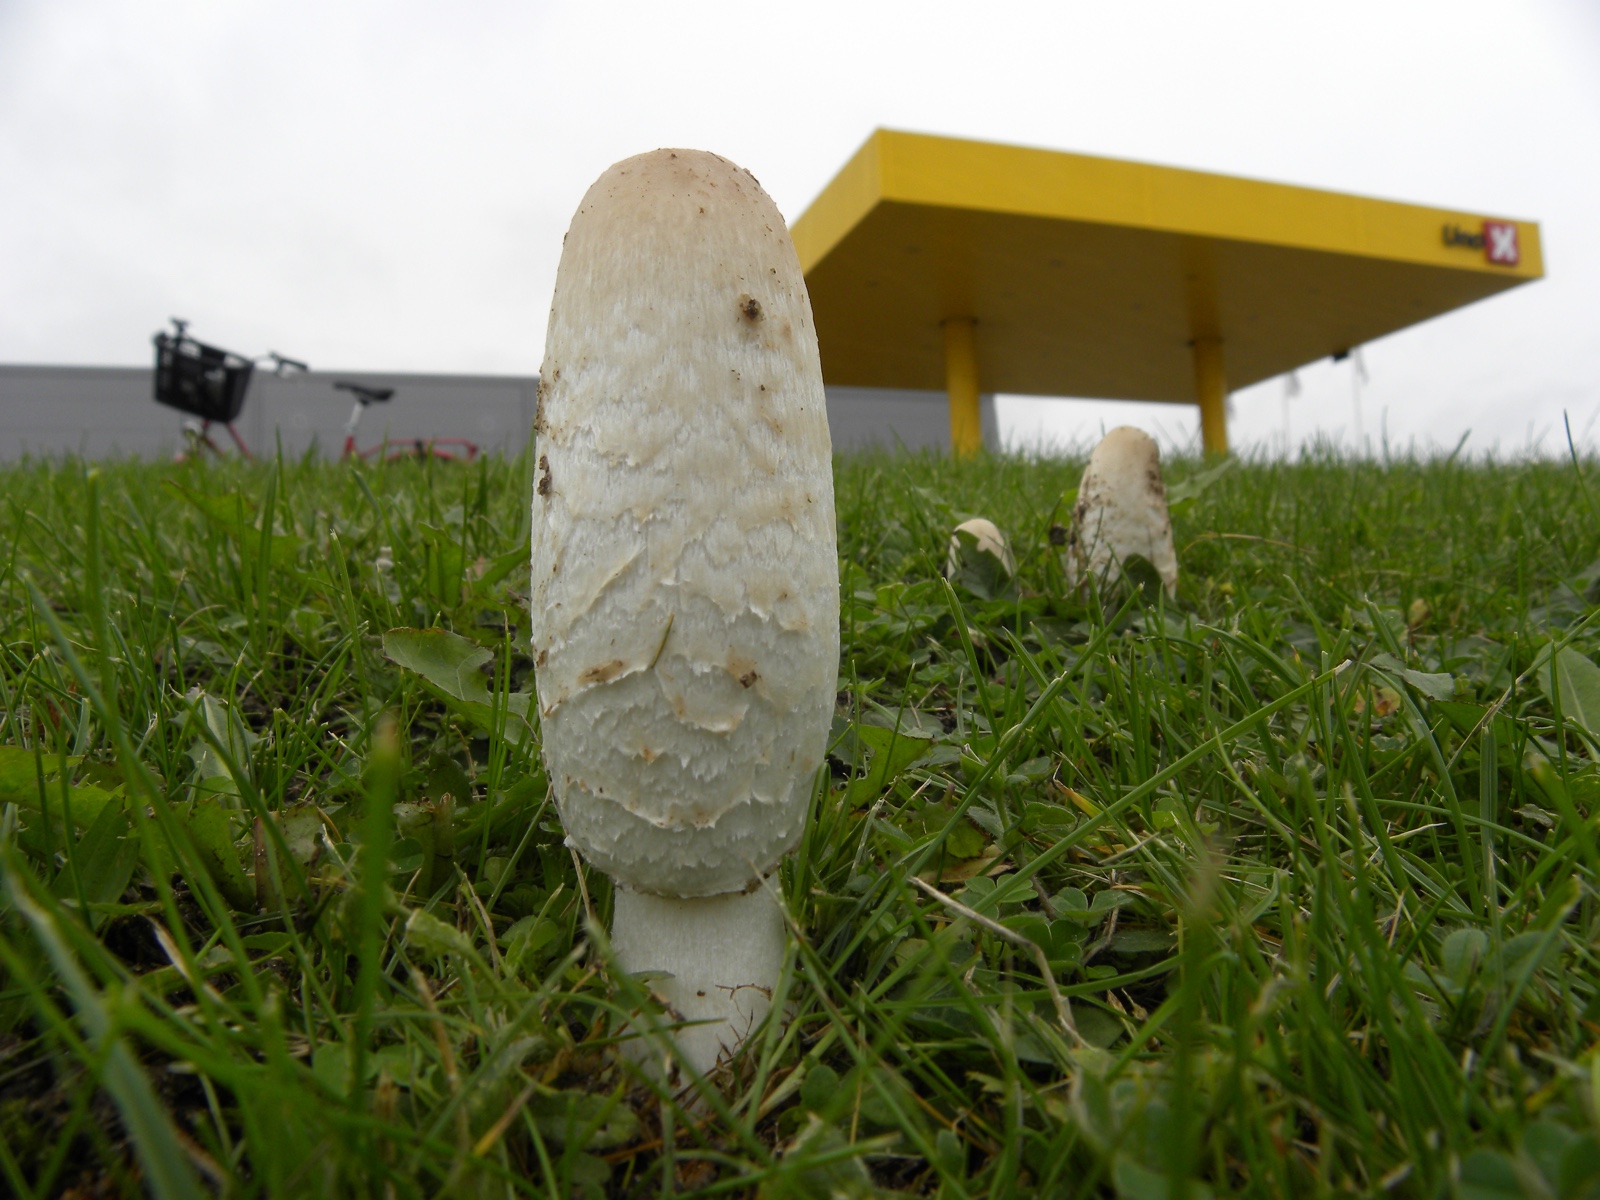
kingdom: Fungi
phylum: Basidiomycota
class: Agaricomycetes
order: Agaricales
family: Agaricaceae
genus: Coprinus
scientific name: Coprinus comatus
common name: stor parykhat
